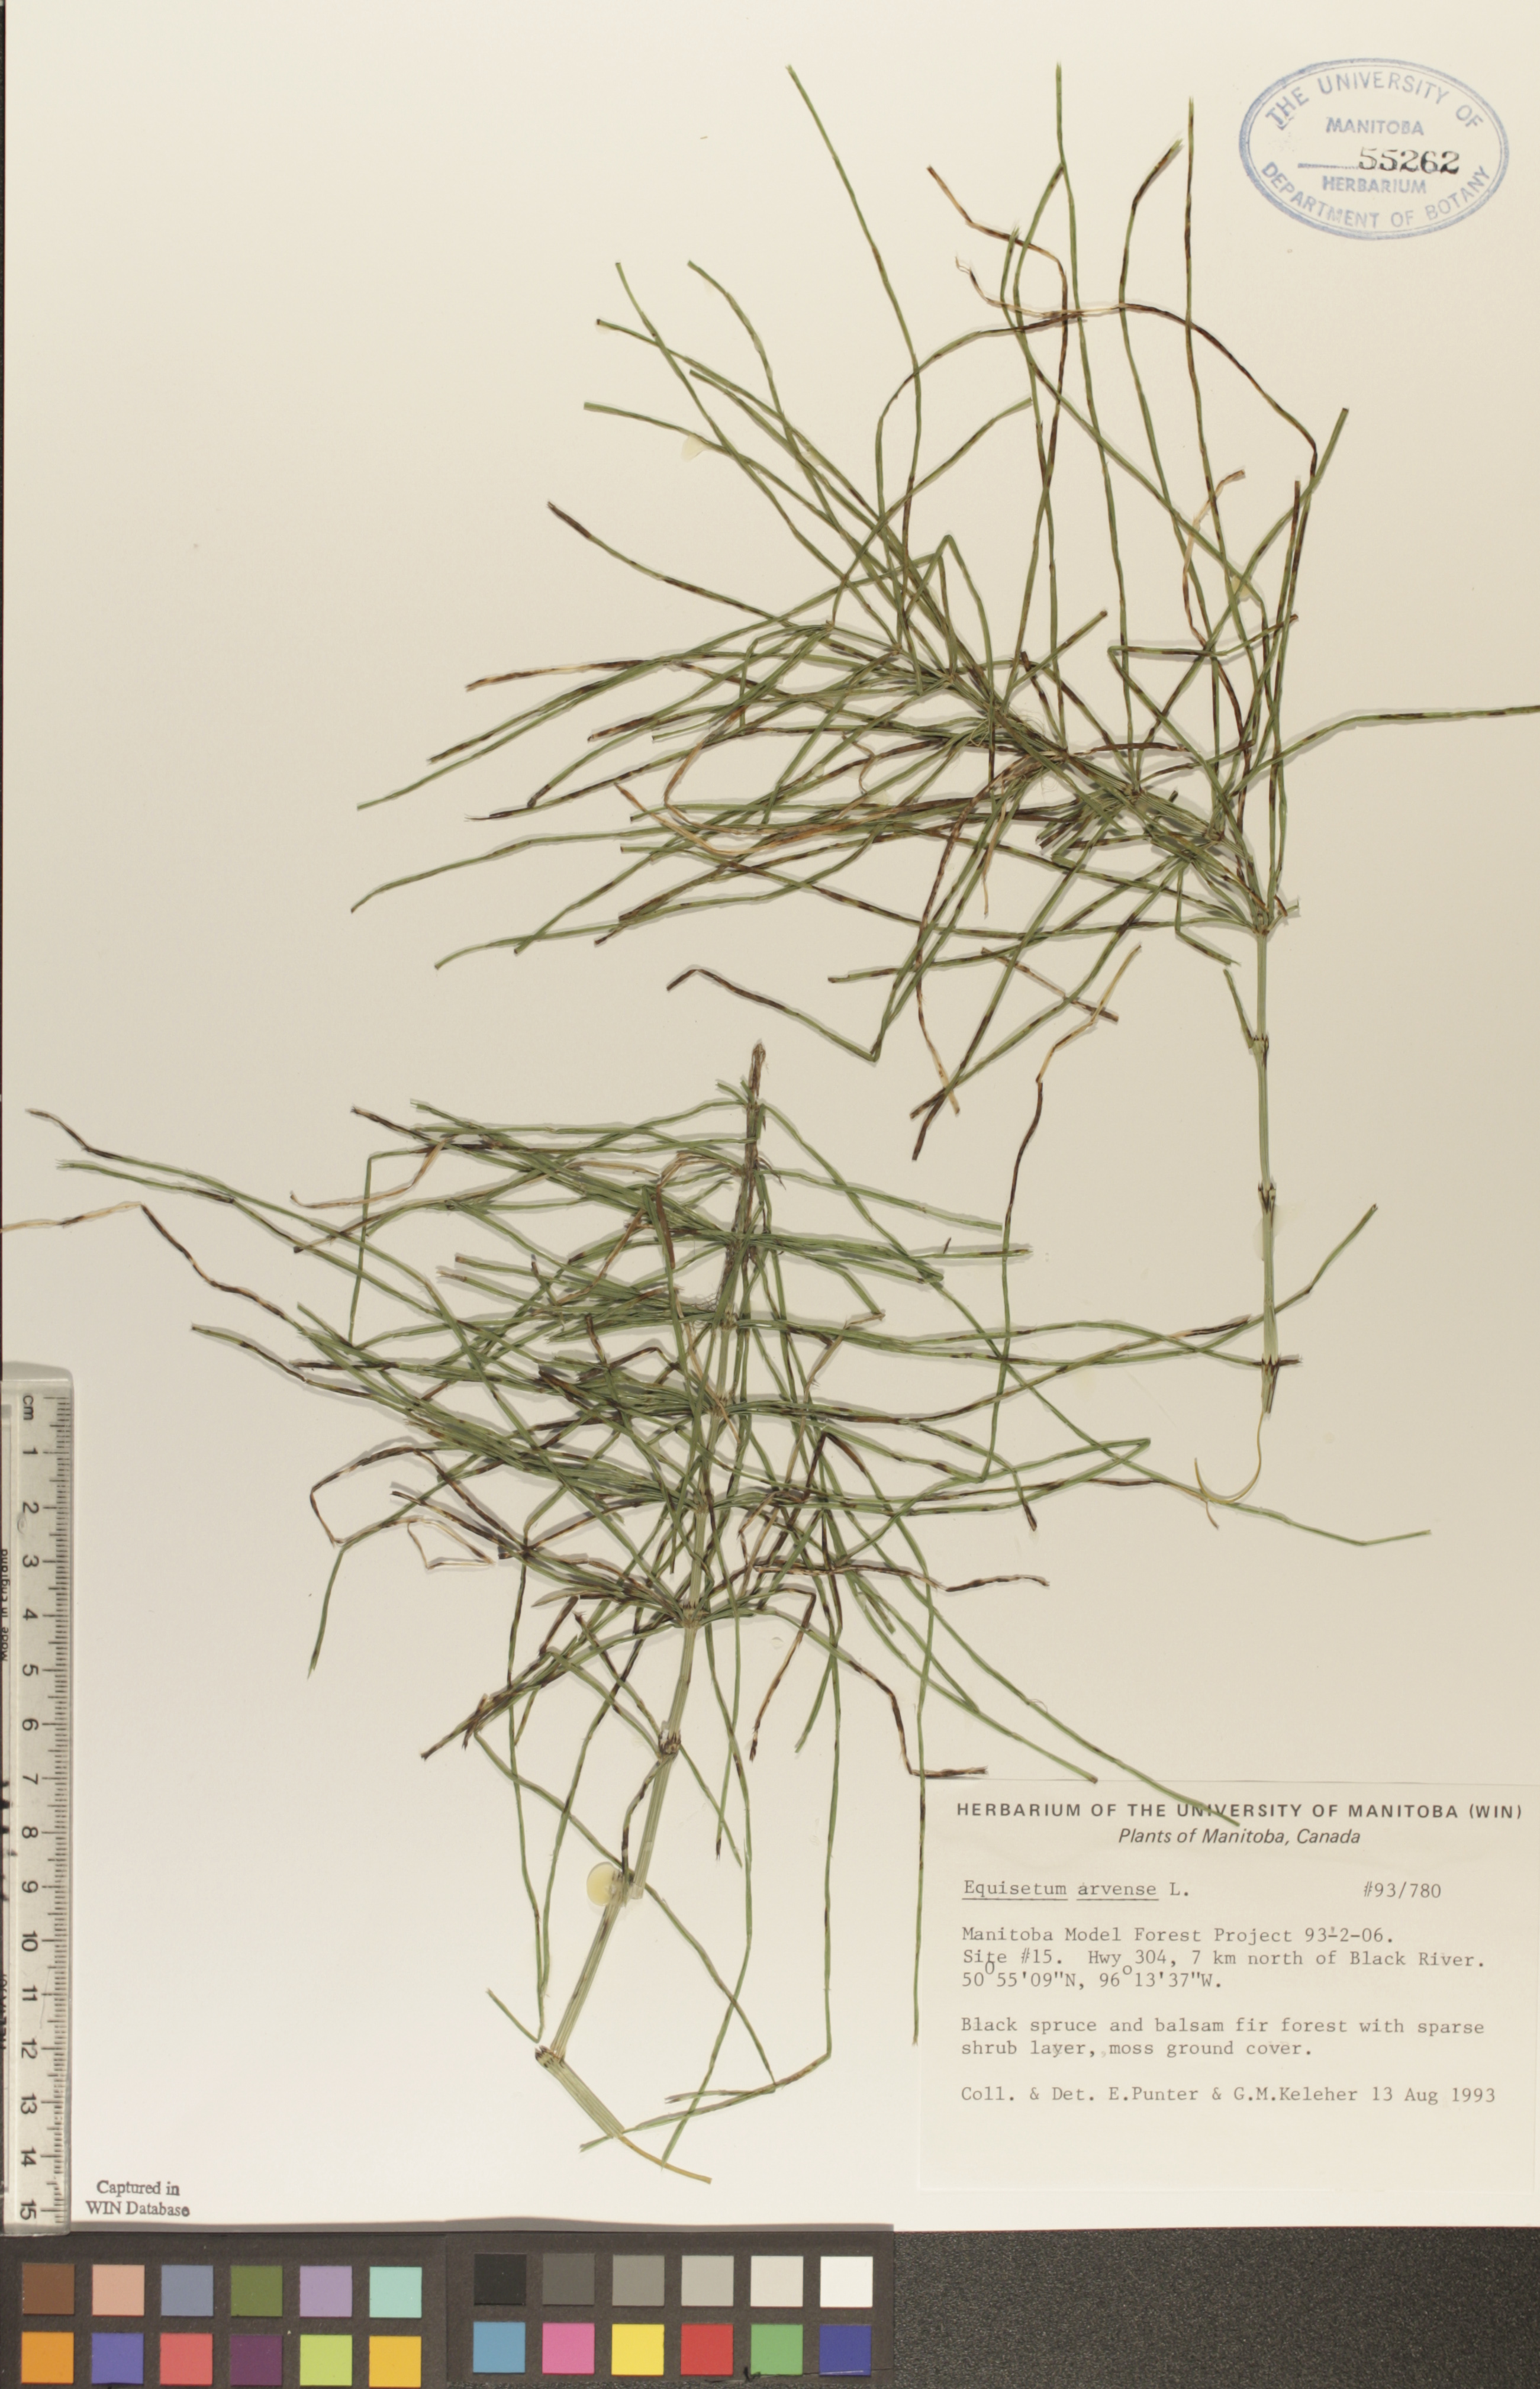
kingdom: Plantae
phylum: Tracheophyta
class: Polypodiopsida
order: Equisetales
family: Equisetaceae
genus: Equisetum
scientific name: Equisetum arvense
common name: Field horsetail
